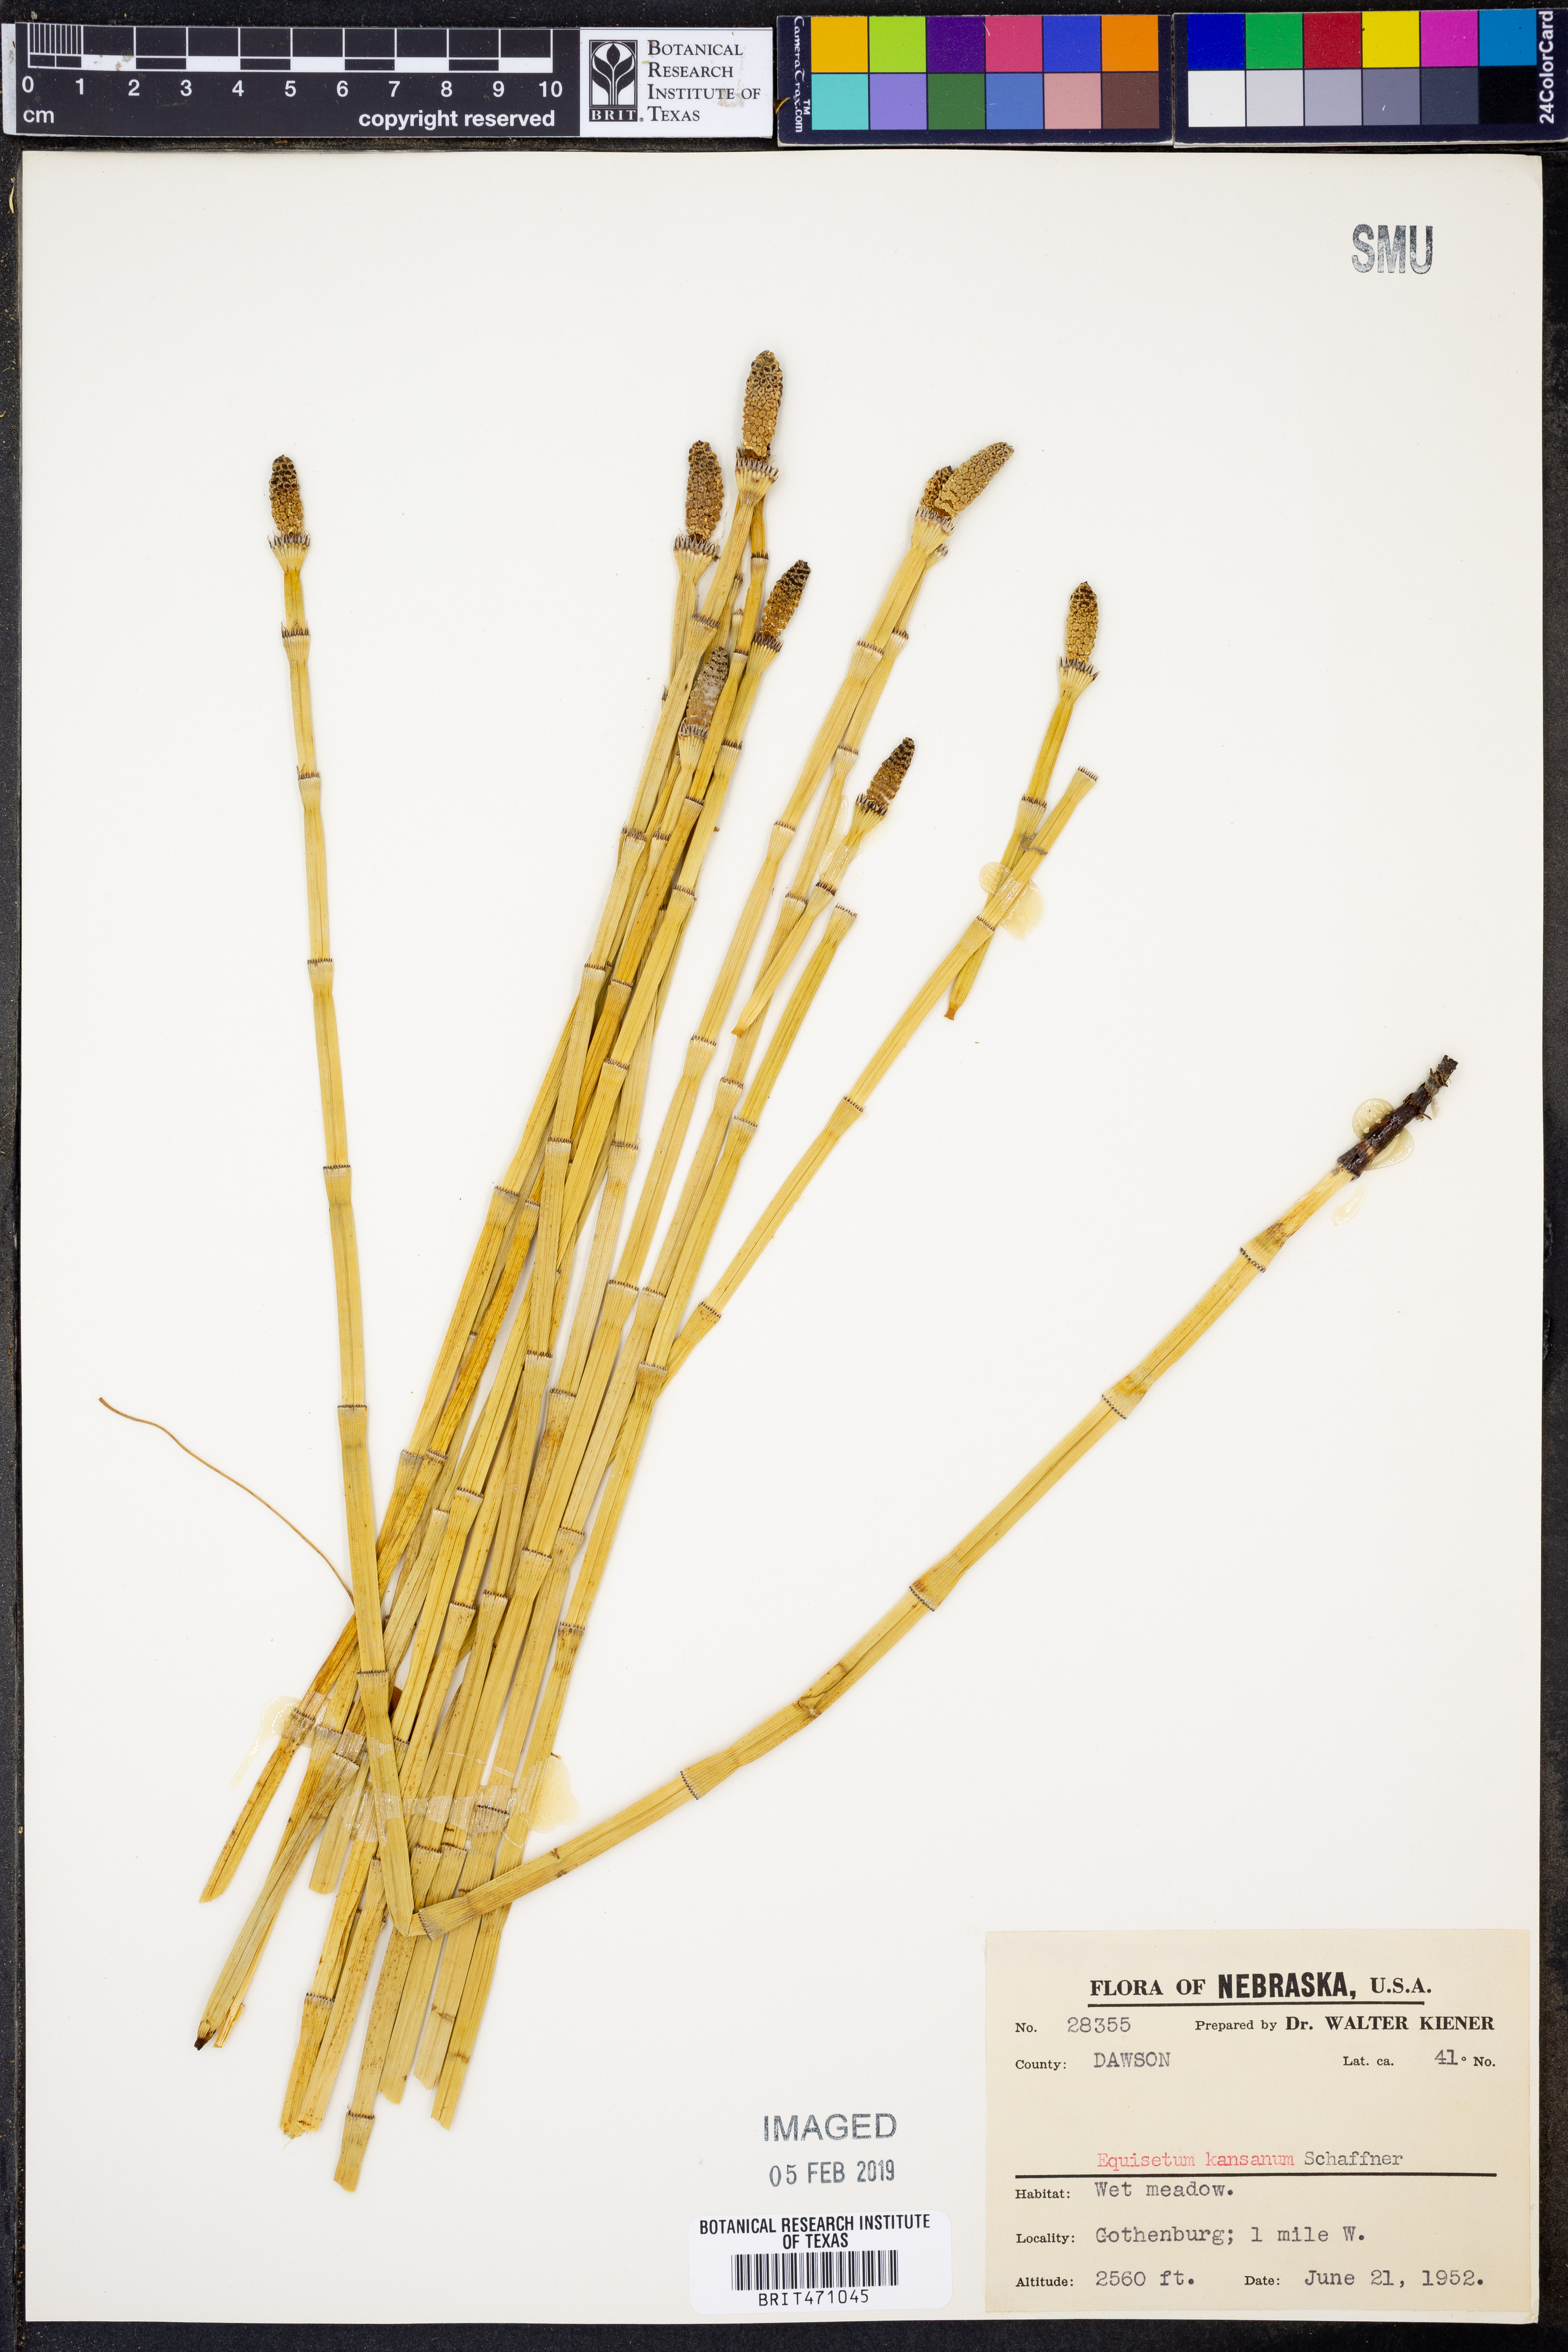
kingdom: Plantae
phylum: Tracheophyta
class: Polypodiopsida
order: Equisetales
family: Equisetaceae
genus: Equisetum
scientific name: Equisetum laevigatum
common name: Smooth scouring-rush
